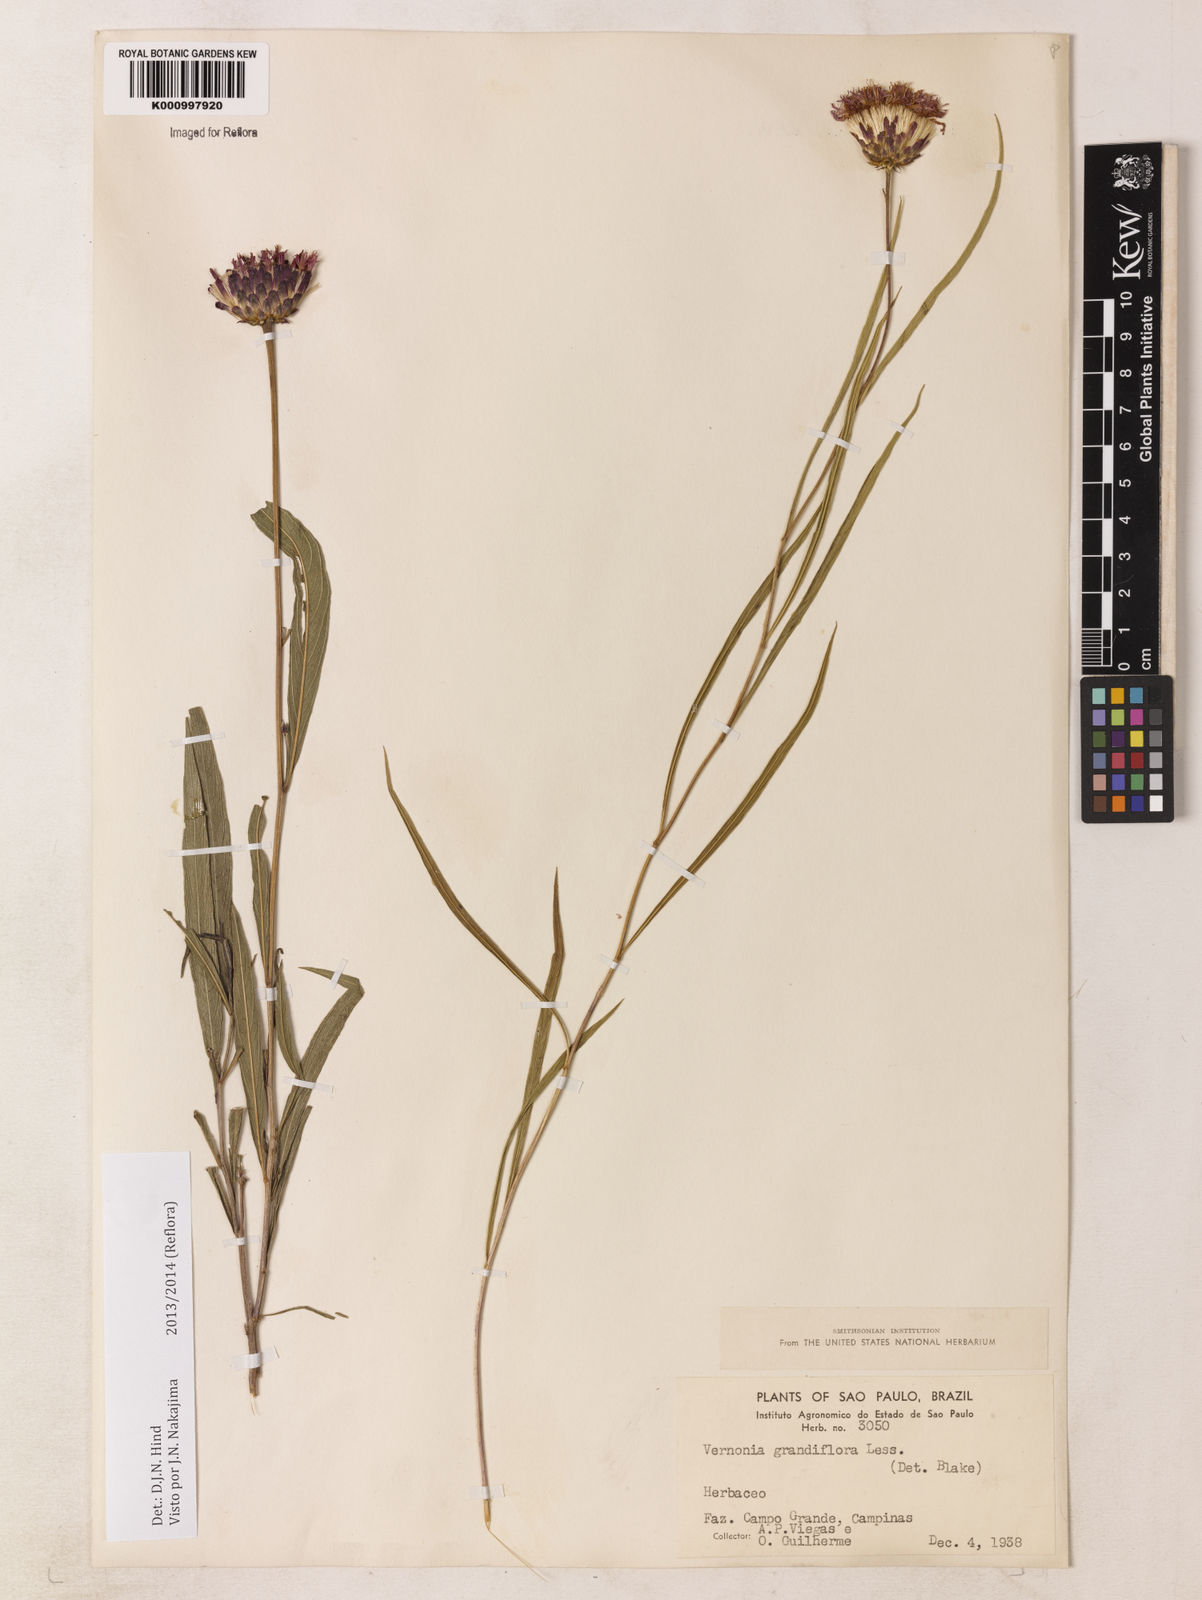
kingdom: Plantae
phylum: Tracheophyta
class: Magnoliopsida
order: Asterales
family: Asteraceae
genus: Lessingianthus
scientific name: Lessingianthus grandiflorus
